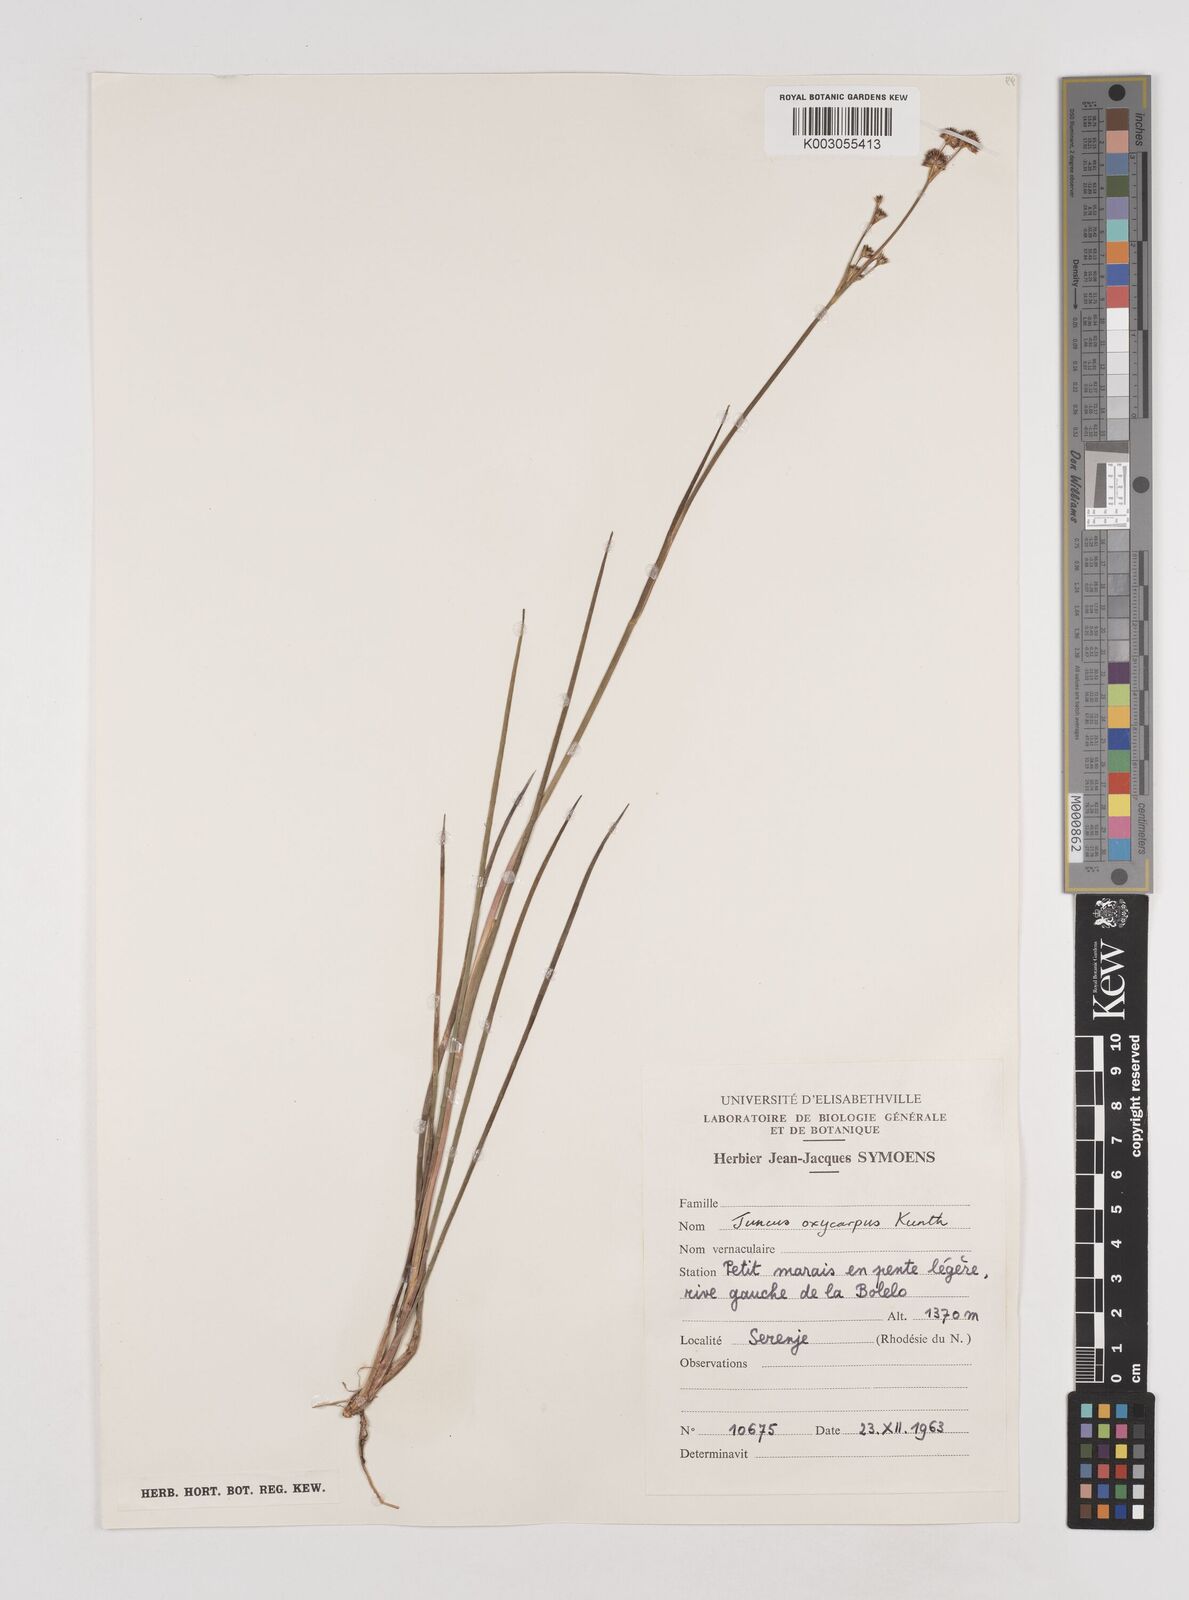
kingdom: Plantae
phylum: Tracheophyta
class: Liliopsida
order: Poales
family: Juncaceae
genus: Juncus
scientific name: Juncus oxycarpus
